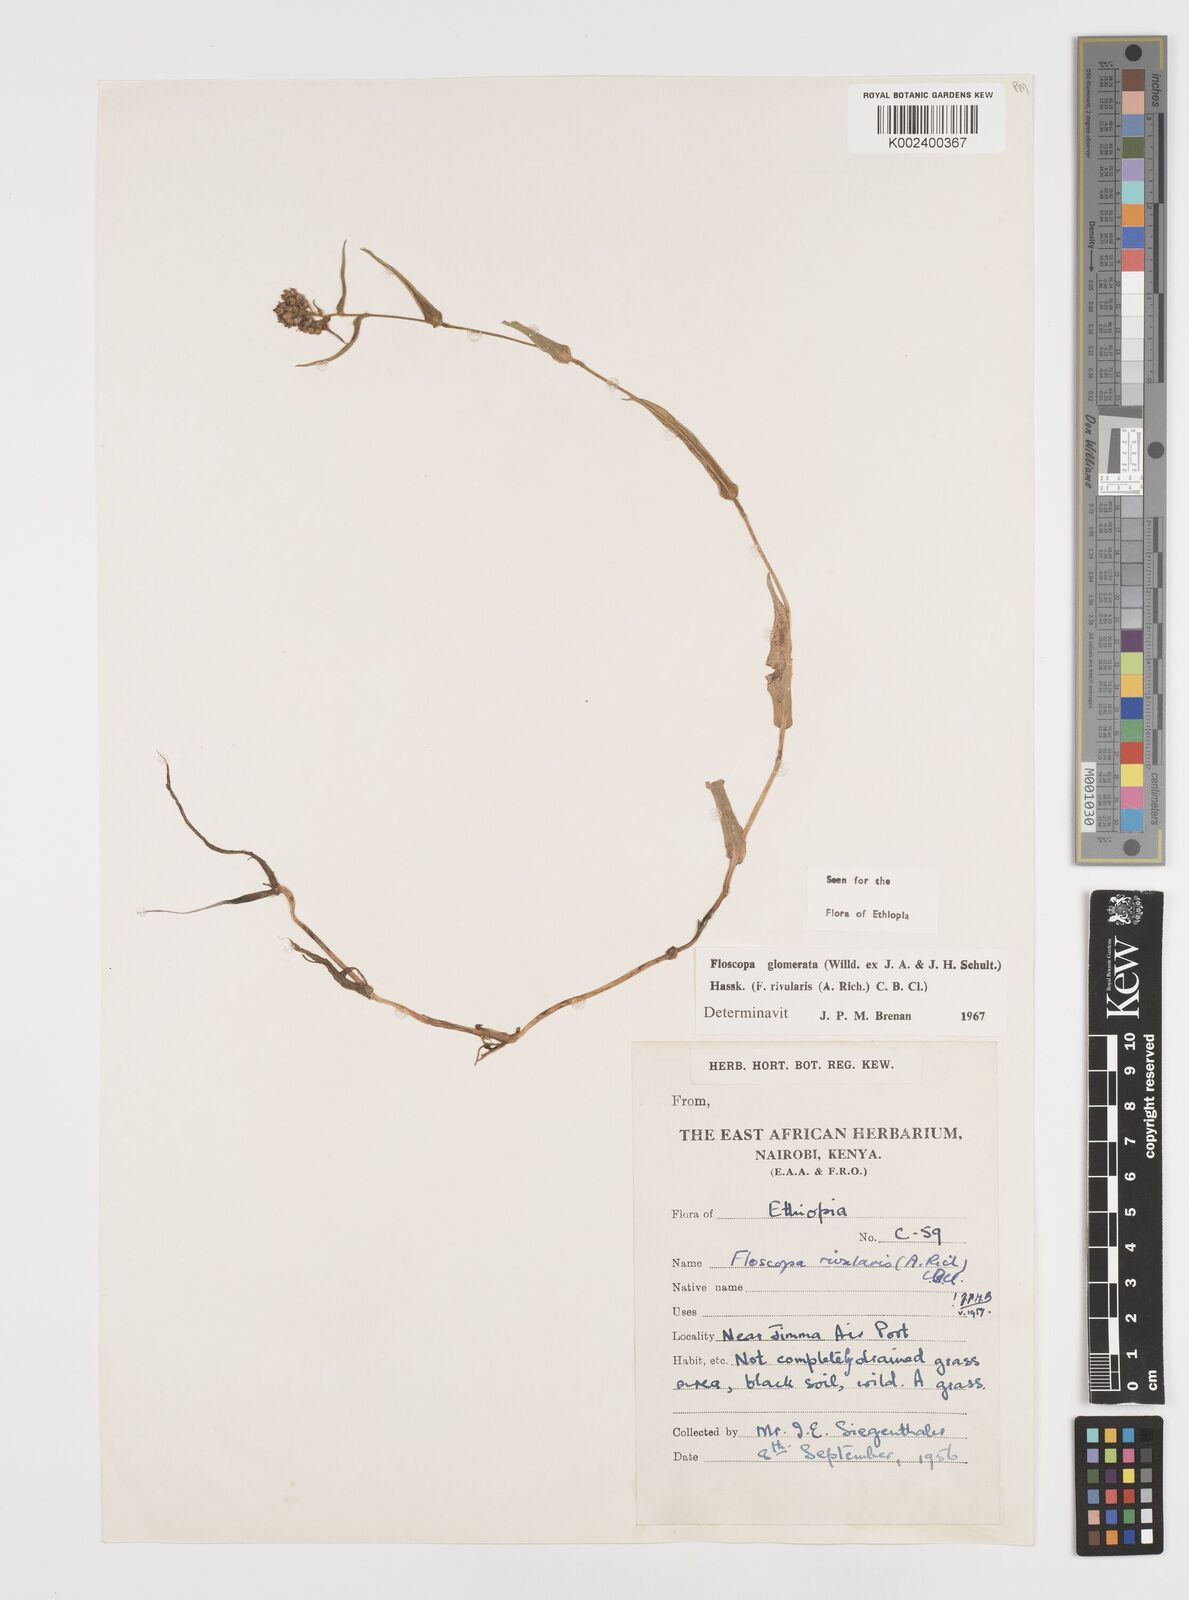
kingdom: Plantae
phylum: Tracheophyta
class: Liliopsida
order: Commelinales
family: Commelinaceae
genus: Floscopa
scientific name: Floscopa glomerata
